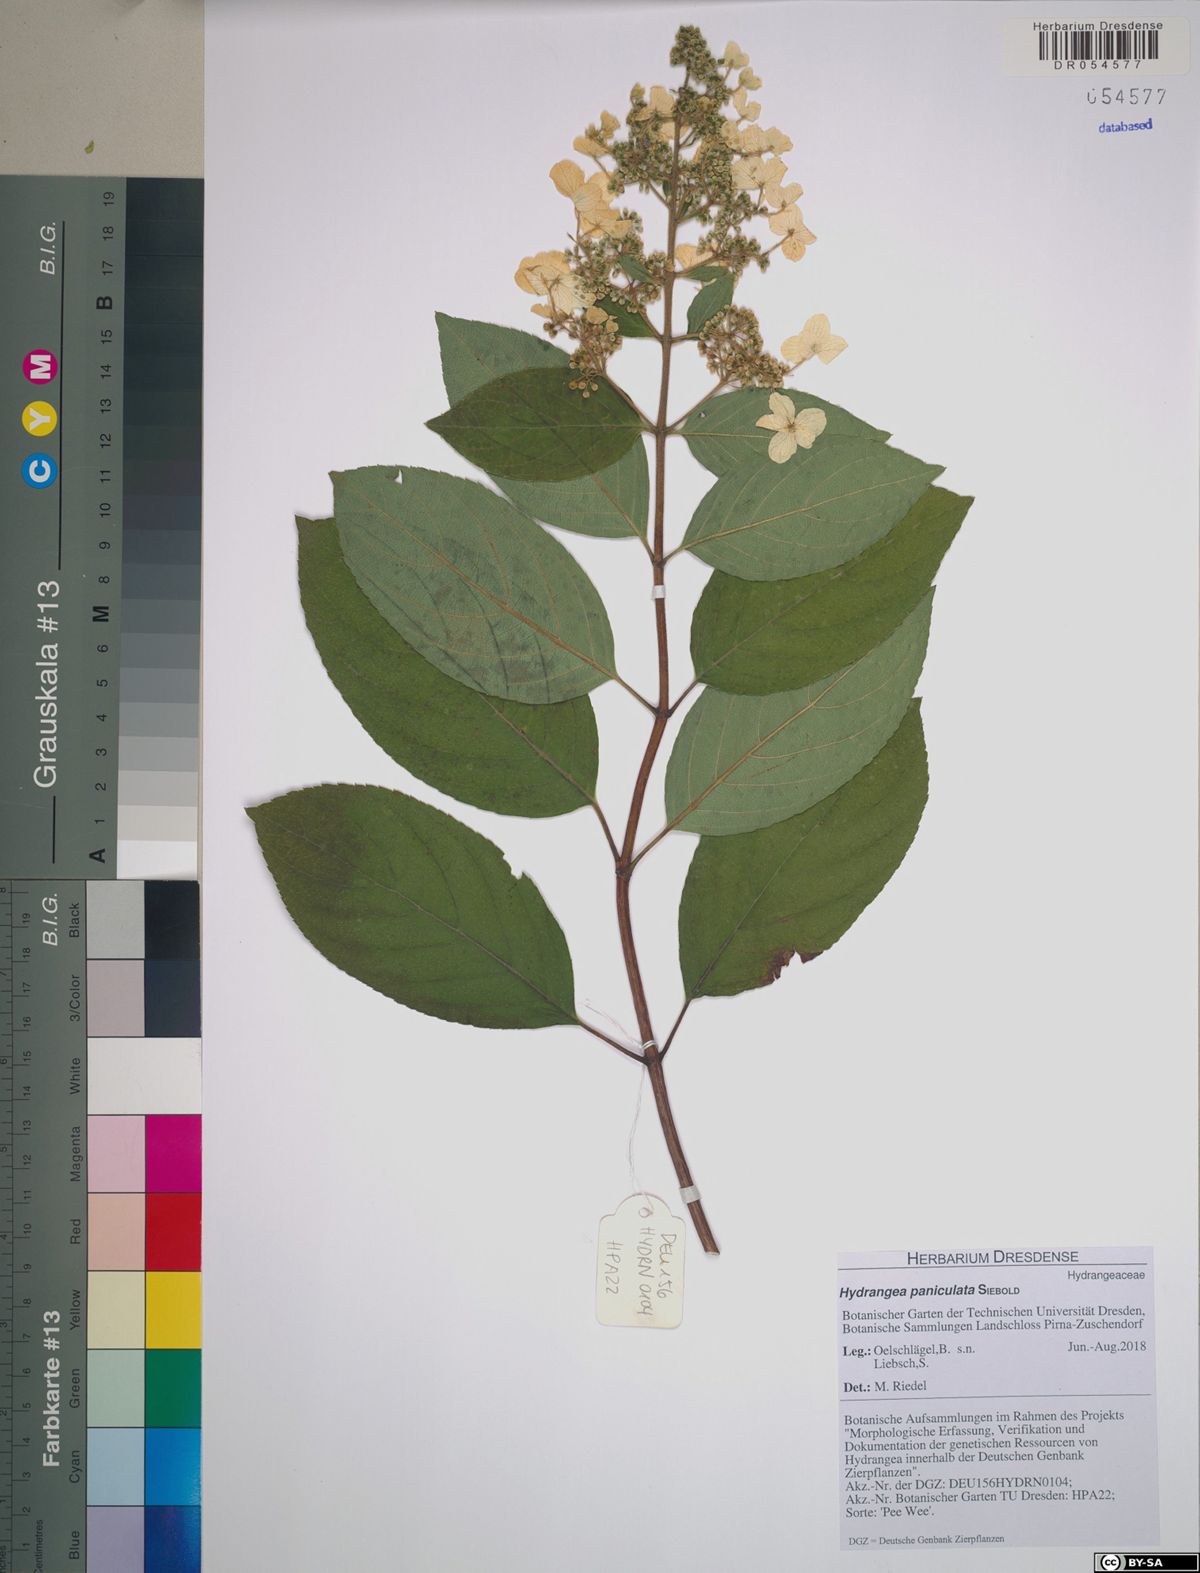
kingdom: Plantae
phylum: Tracheophyta
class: Magnoliopsida
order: Cornales
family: Hydrangeaceae
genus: Hydrangea
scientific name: Hydrangea paniculata
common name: Panicled hydrangea
